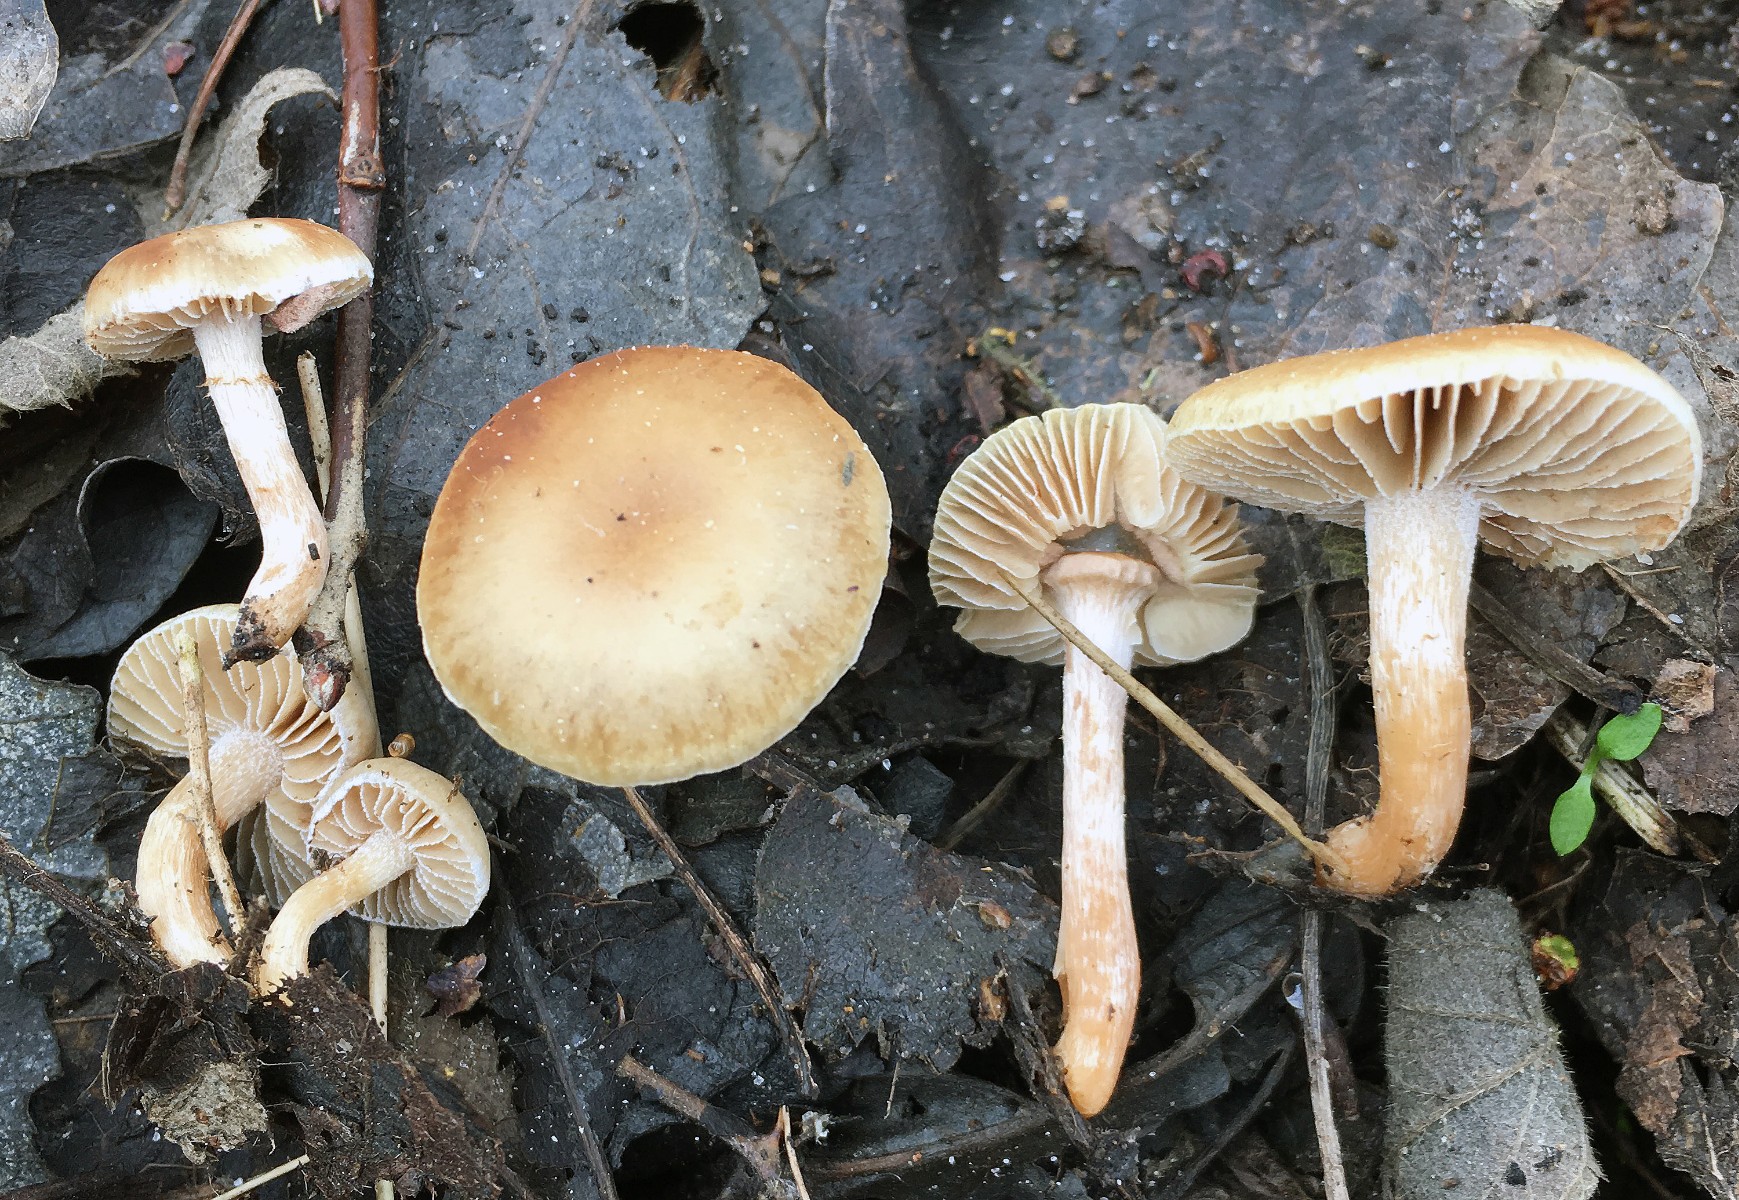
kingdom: Fungi
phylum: Basidiomycota
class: Agaricomycetes
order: Agaricales
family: Strophariaceae
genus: Meottomyces
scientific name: Meottomyces dissimulans
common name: smudsigbrun vinterskælhat
